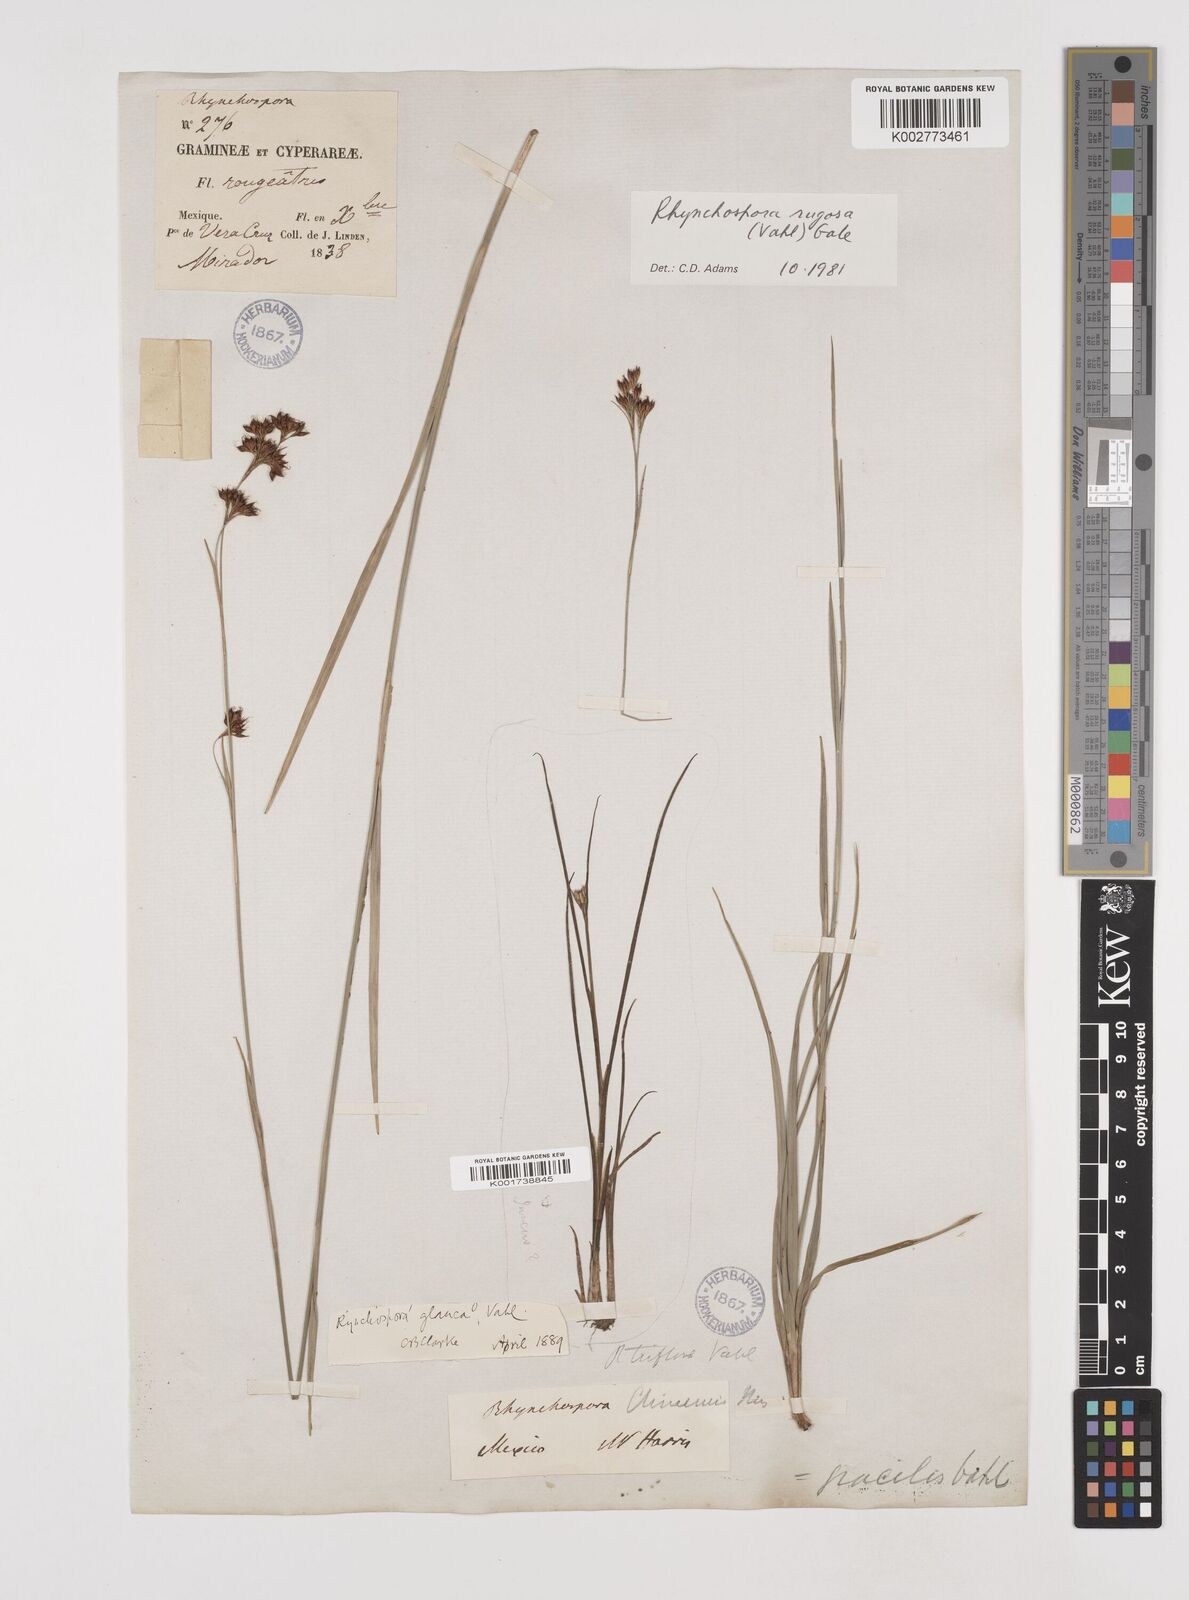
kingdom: Plantae
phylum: Tracheophyta
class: Liliopsida
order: Poales
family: Cyperaceae
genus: Rhynchospora
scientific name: Rhynchospora rugosa
